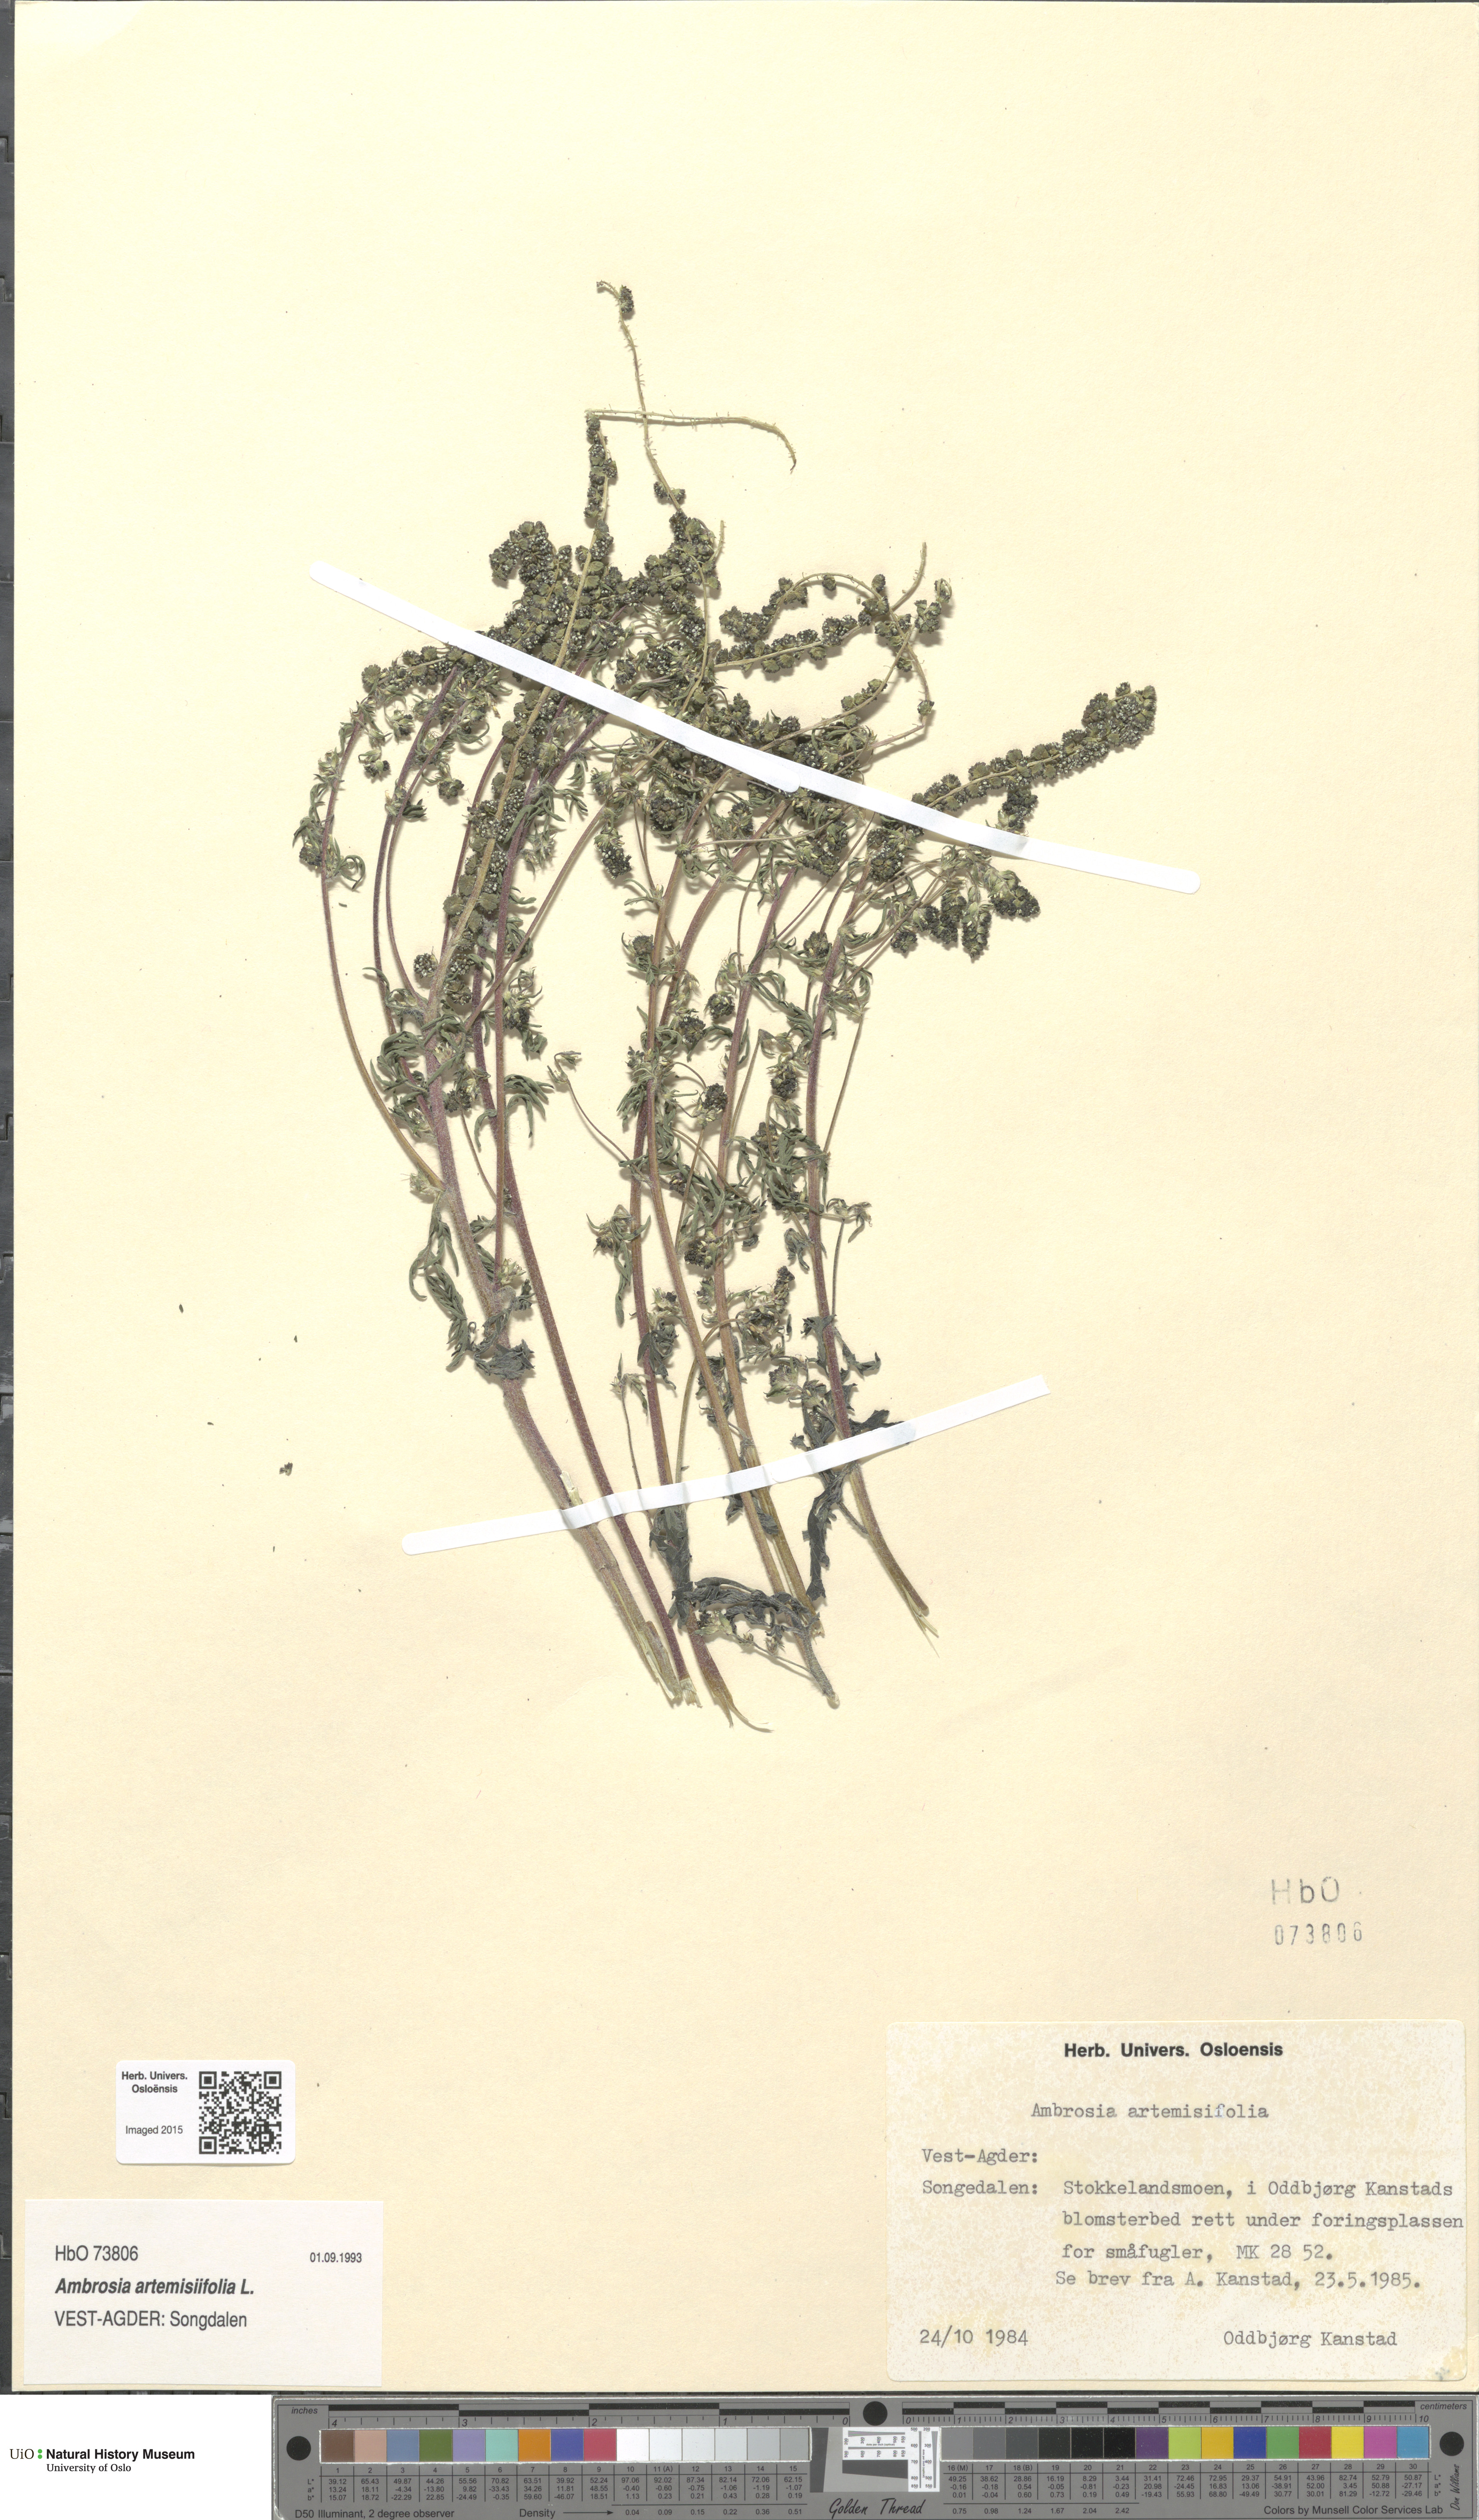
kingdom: Plantae
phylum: Tracheophyta
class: Magnoliopsida
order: Asterales
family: Asteraceae
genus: Ambrosia
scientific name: Ambrosia artemisiifolia
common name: Annual ragweed
